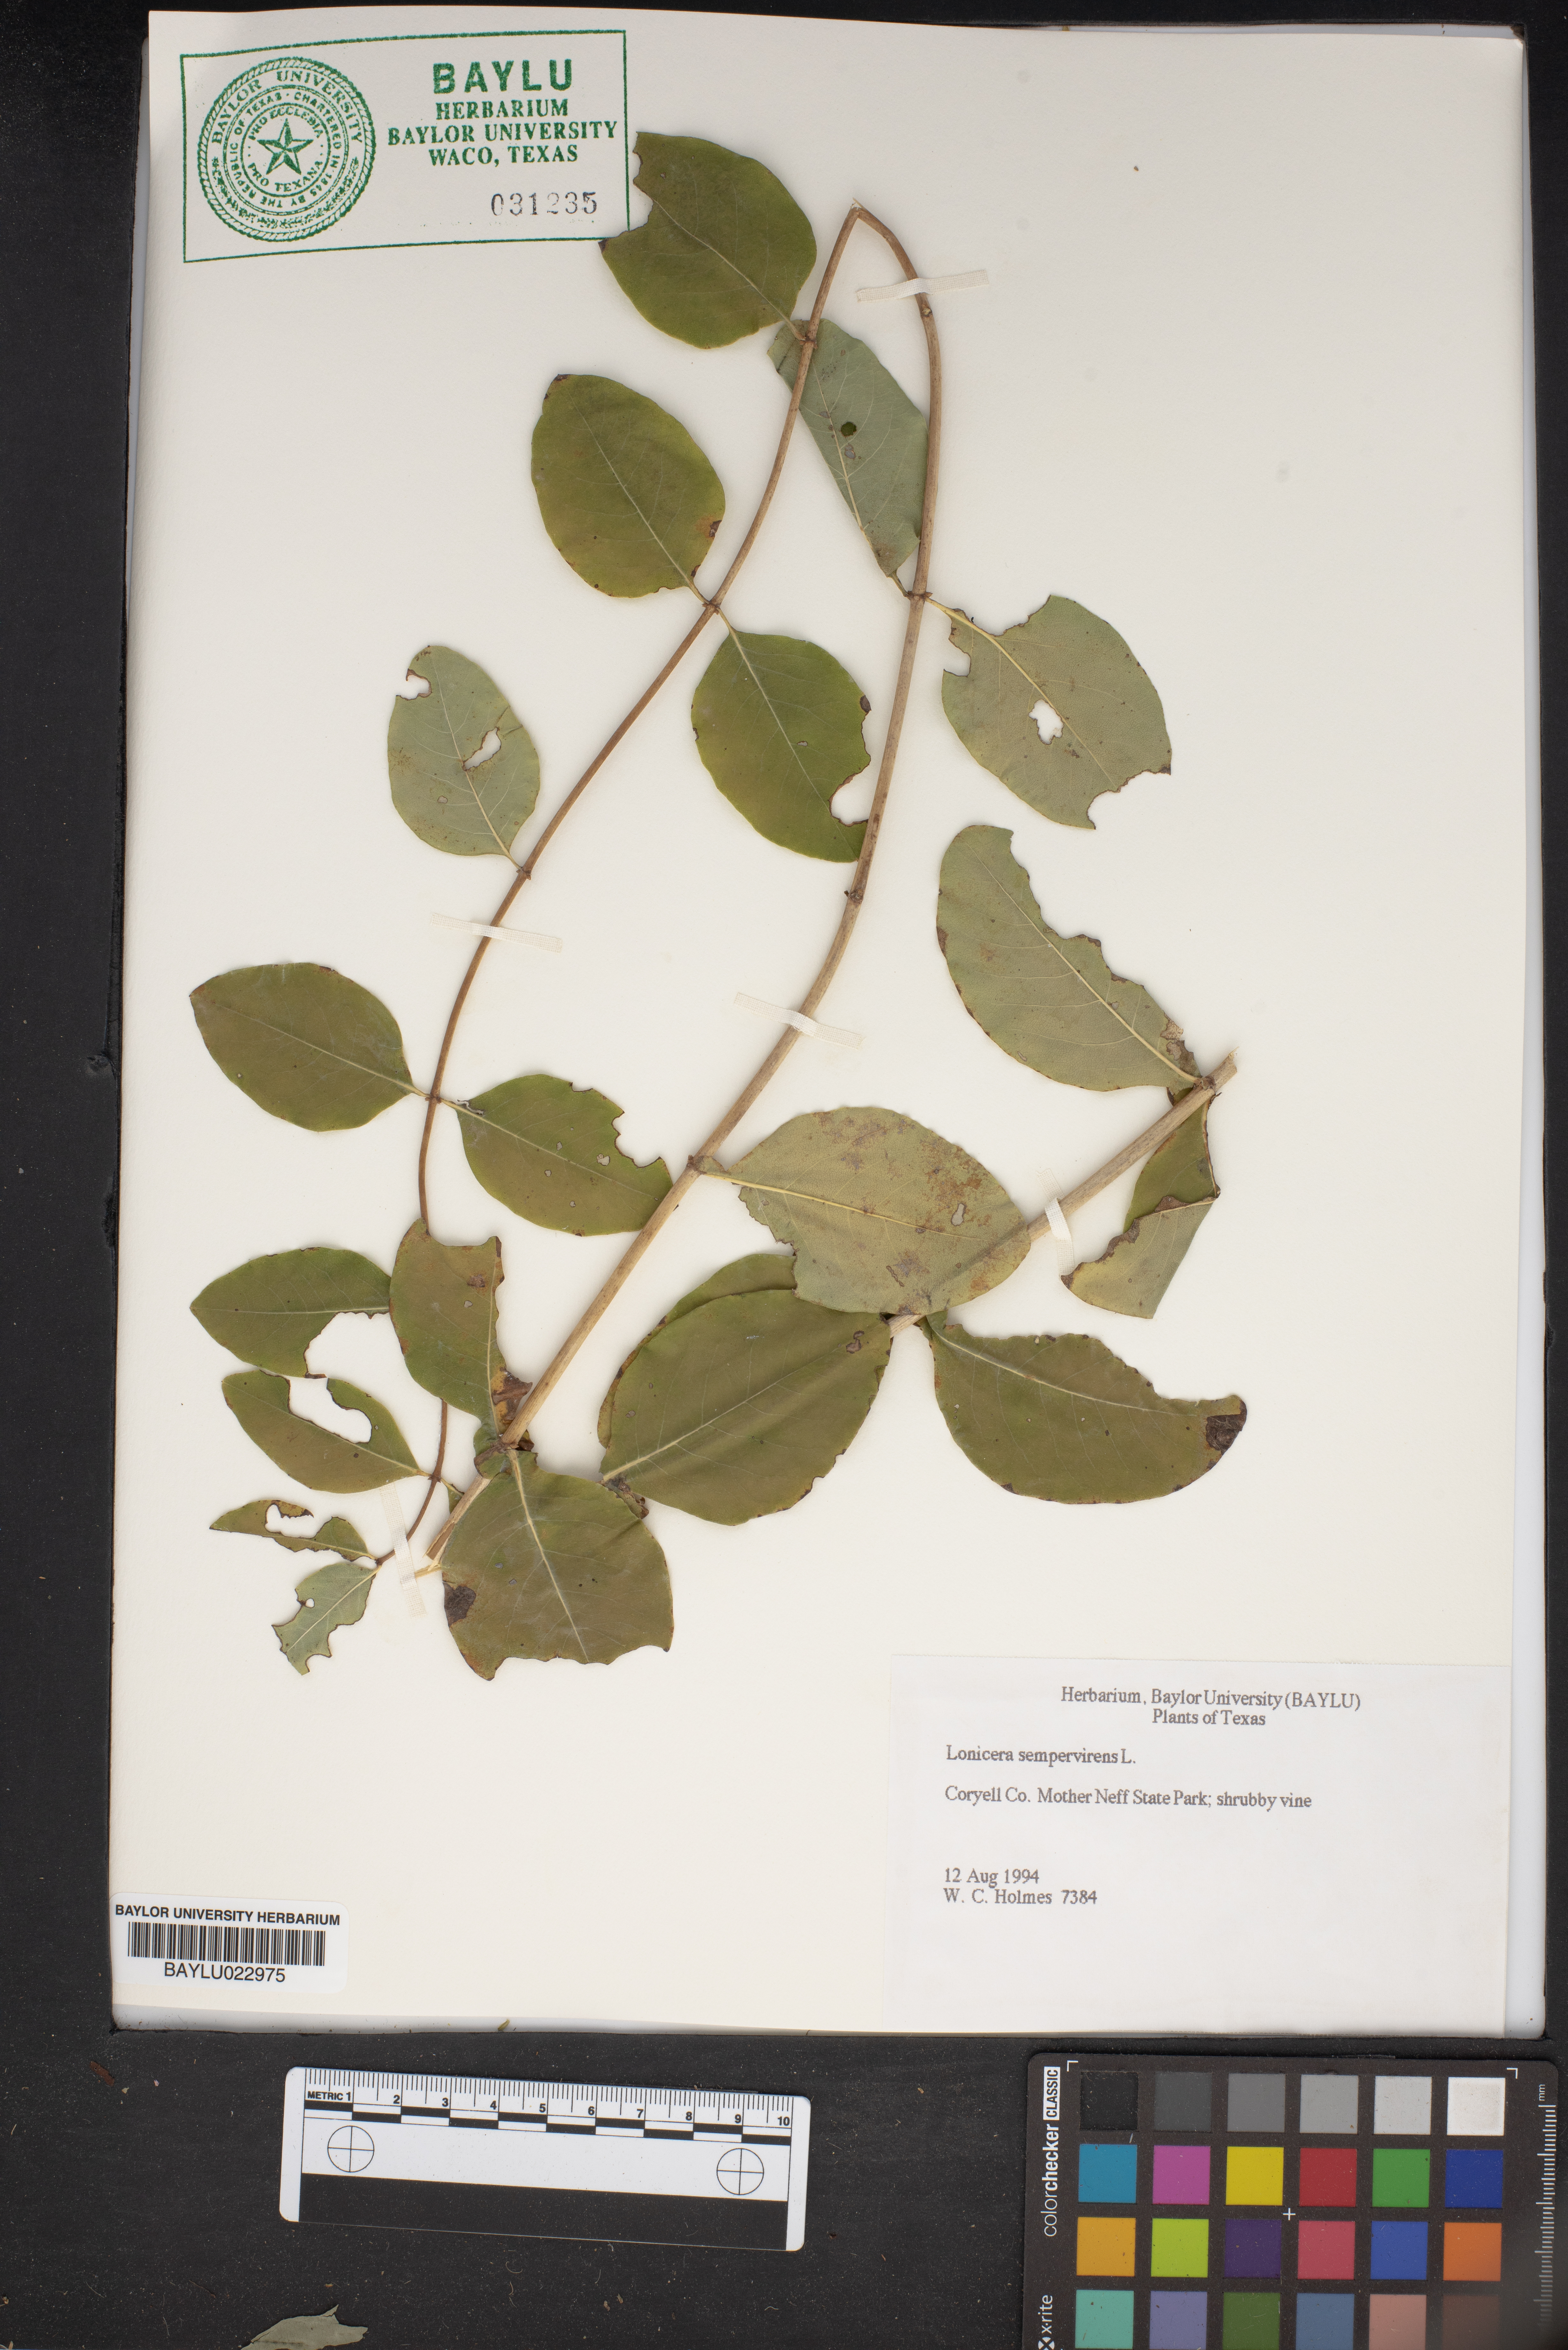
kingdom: Plantae
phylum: Tracheophyta
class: Magnoliopsida
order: Dipsacales
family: Caprifoliaceae
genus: Lonicera
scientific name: Lonicera sempervirens
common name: Coral honeysuckle
